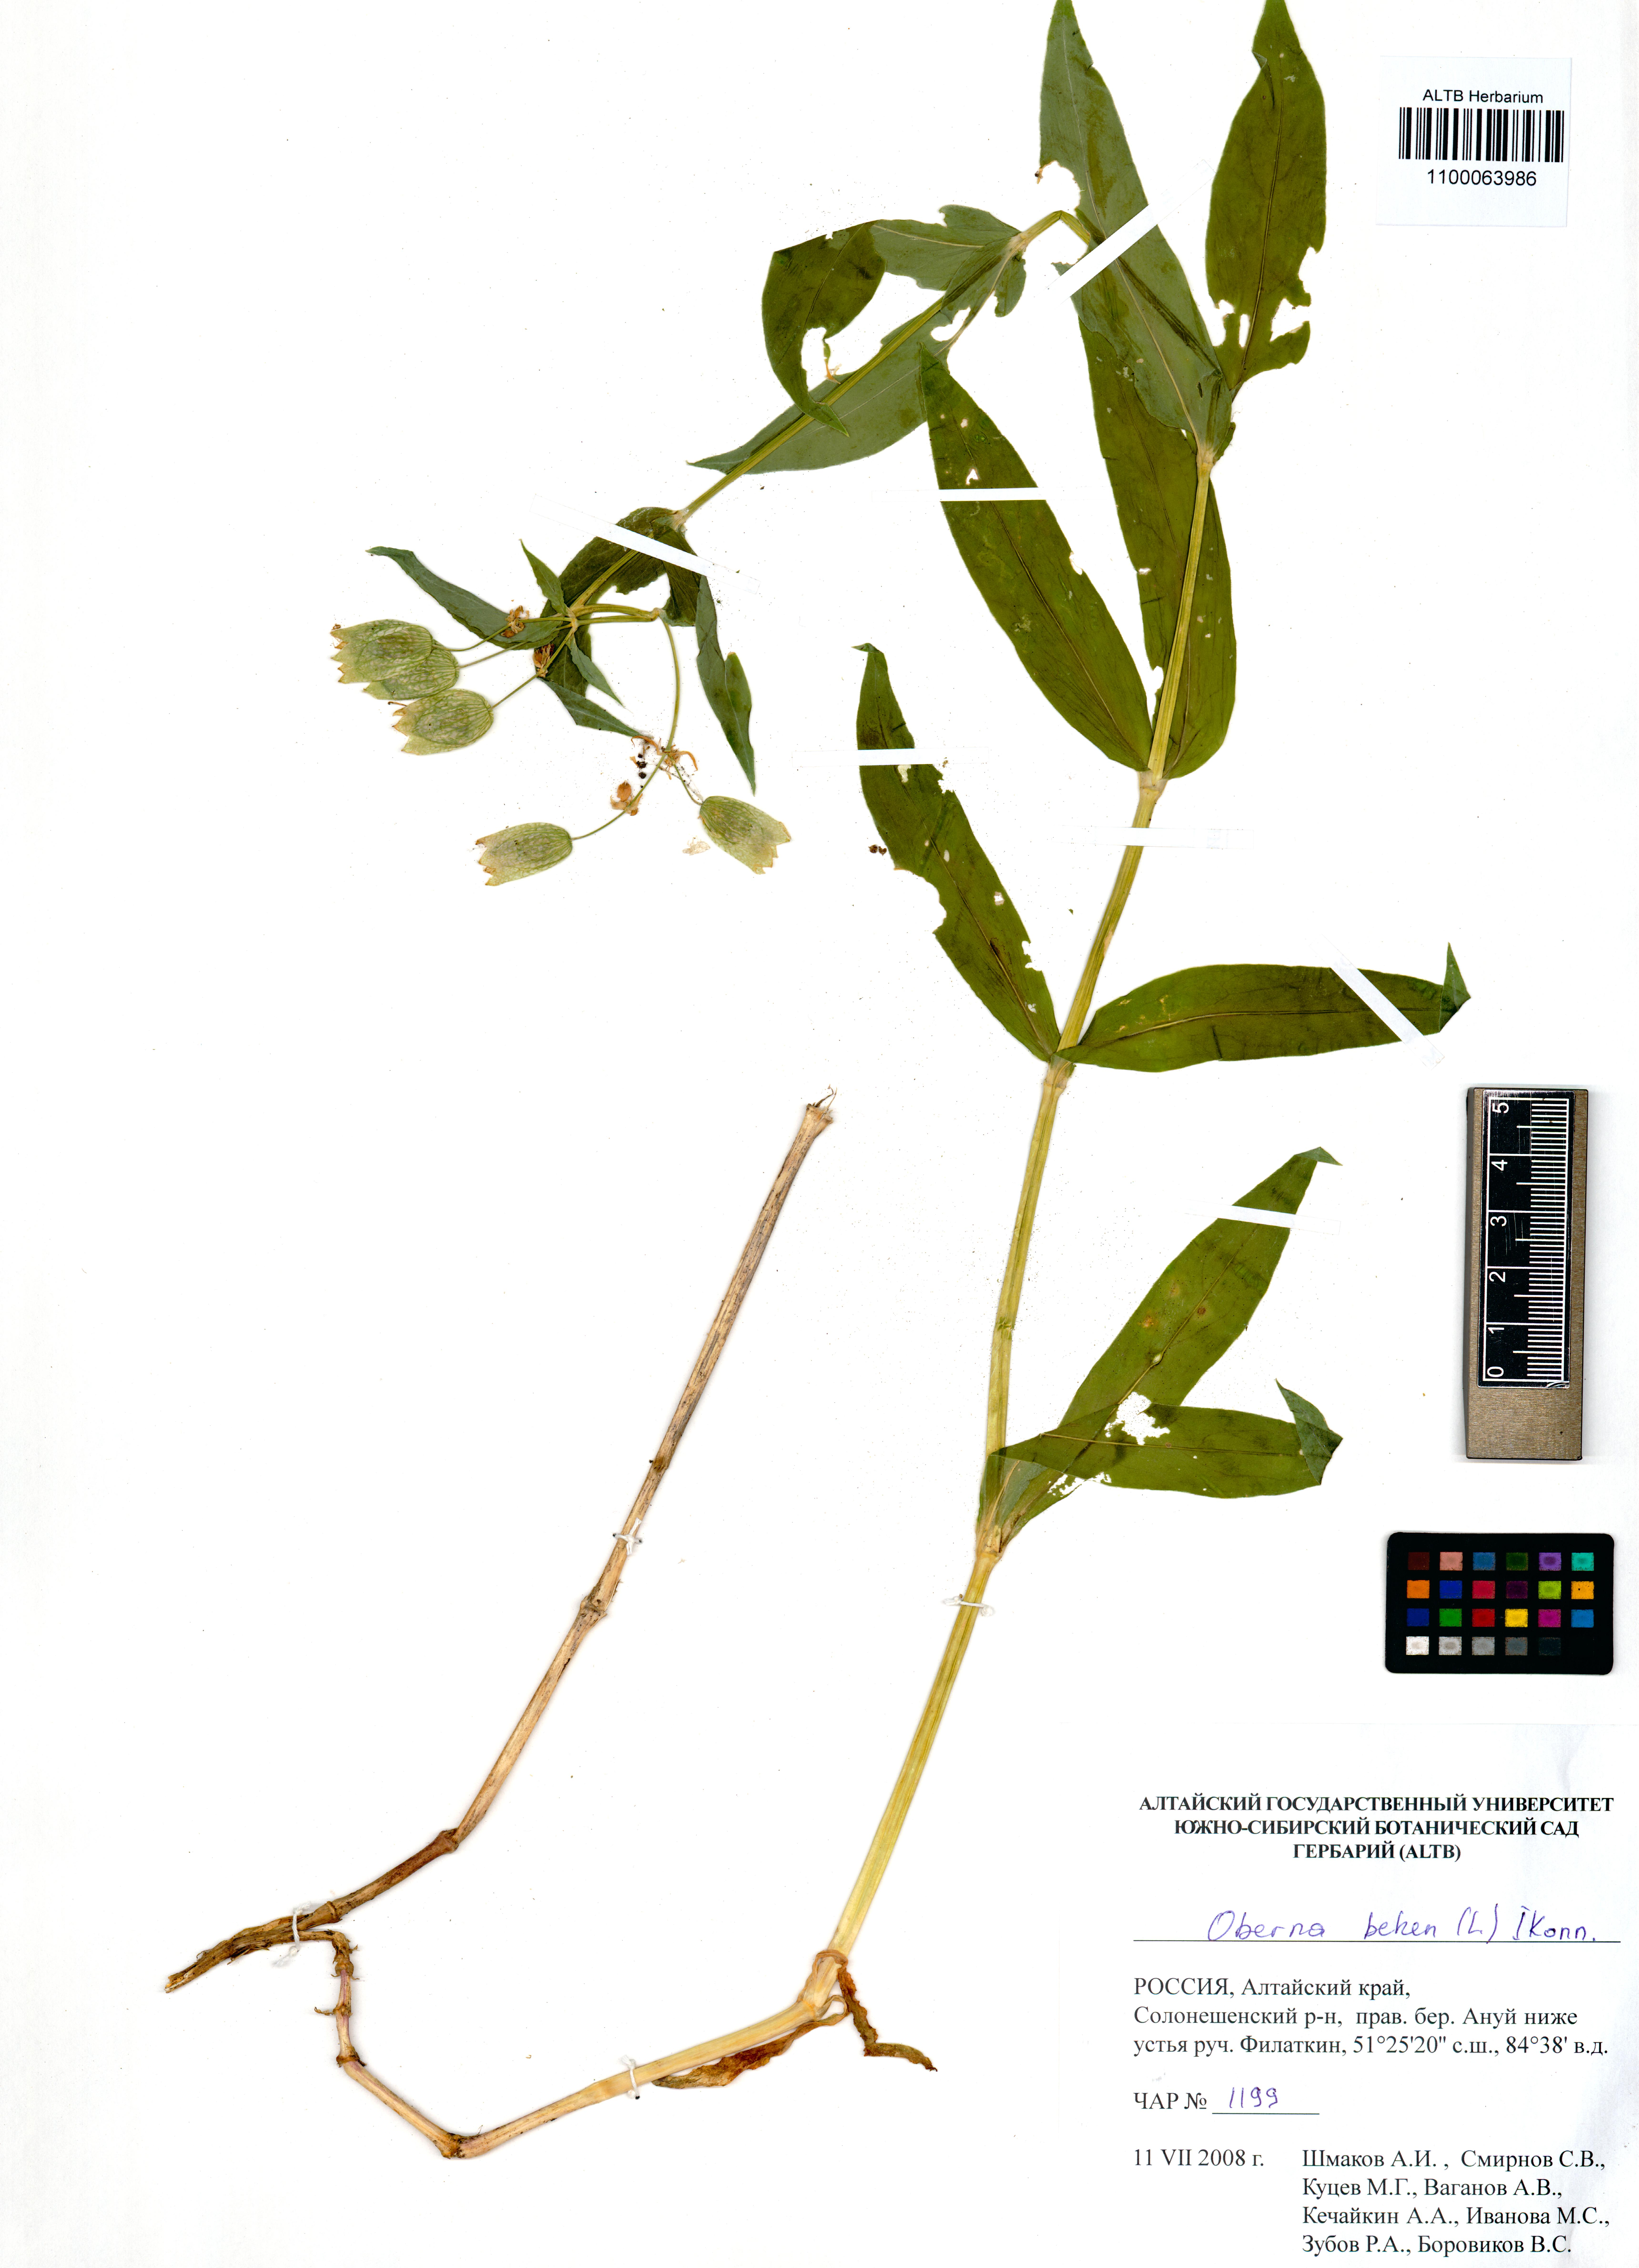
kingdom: Plantae
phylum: Tracheophyta
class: Magnoliopsida
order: Caryophyllales
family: Caryophyllaceae
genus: Silene
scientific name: Silene behen
